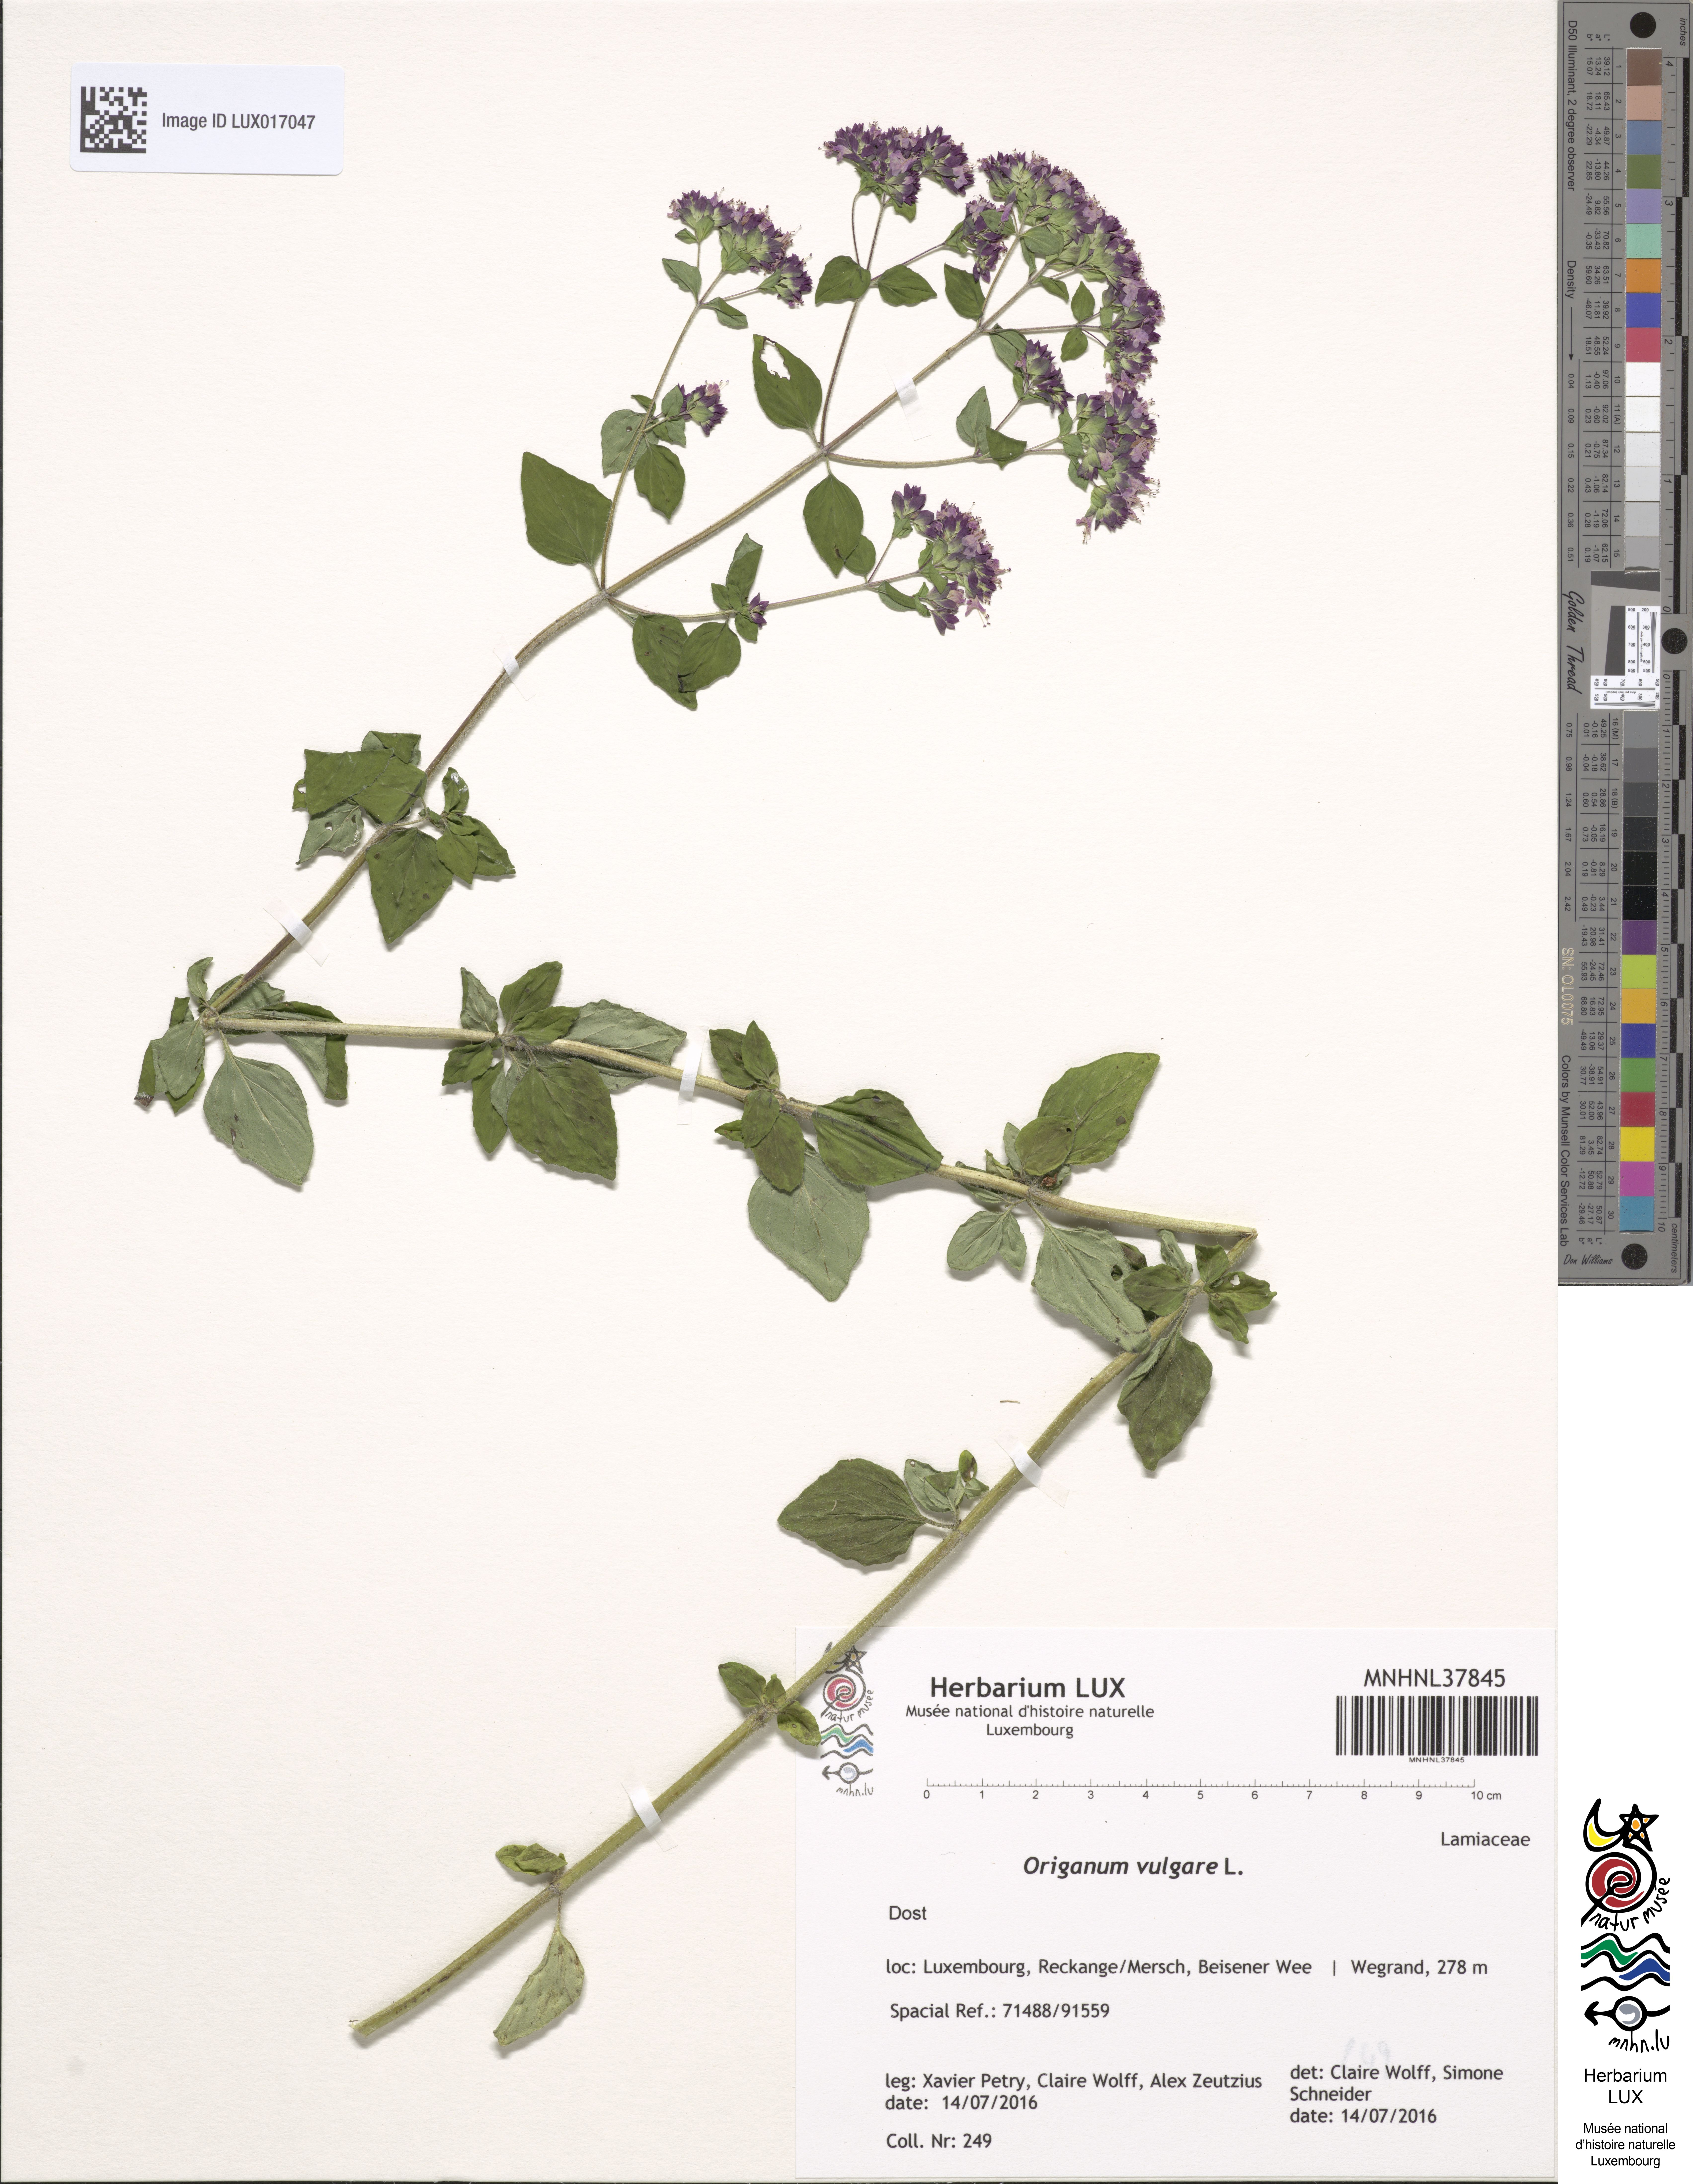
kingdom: Plantae
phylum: Tracheophyta
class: Magnoliopsida
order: Lamiales
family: Lamiaceae
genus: Origanum
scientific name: Origanum vulgare
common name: Wild marjoram
